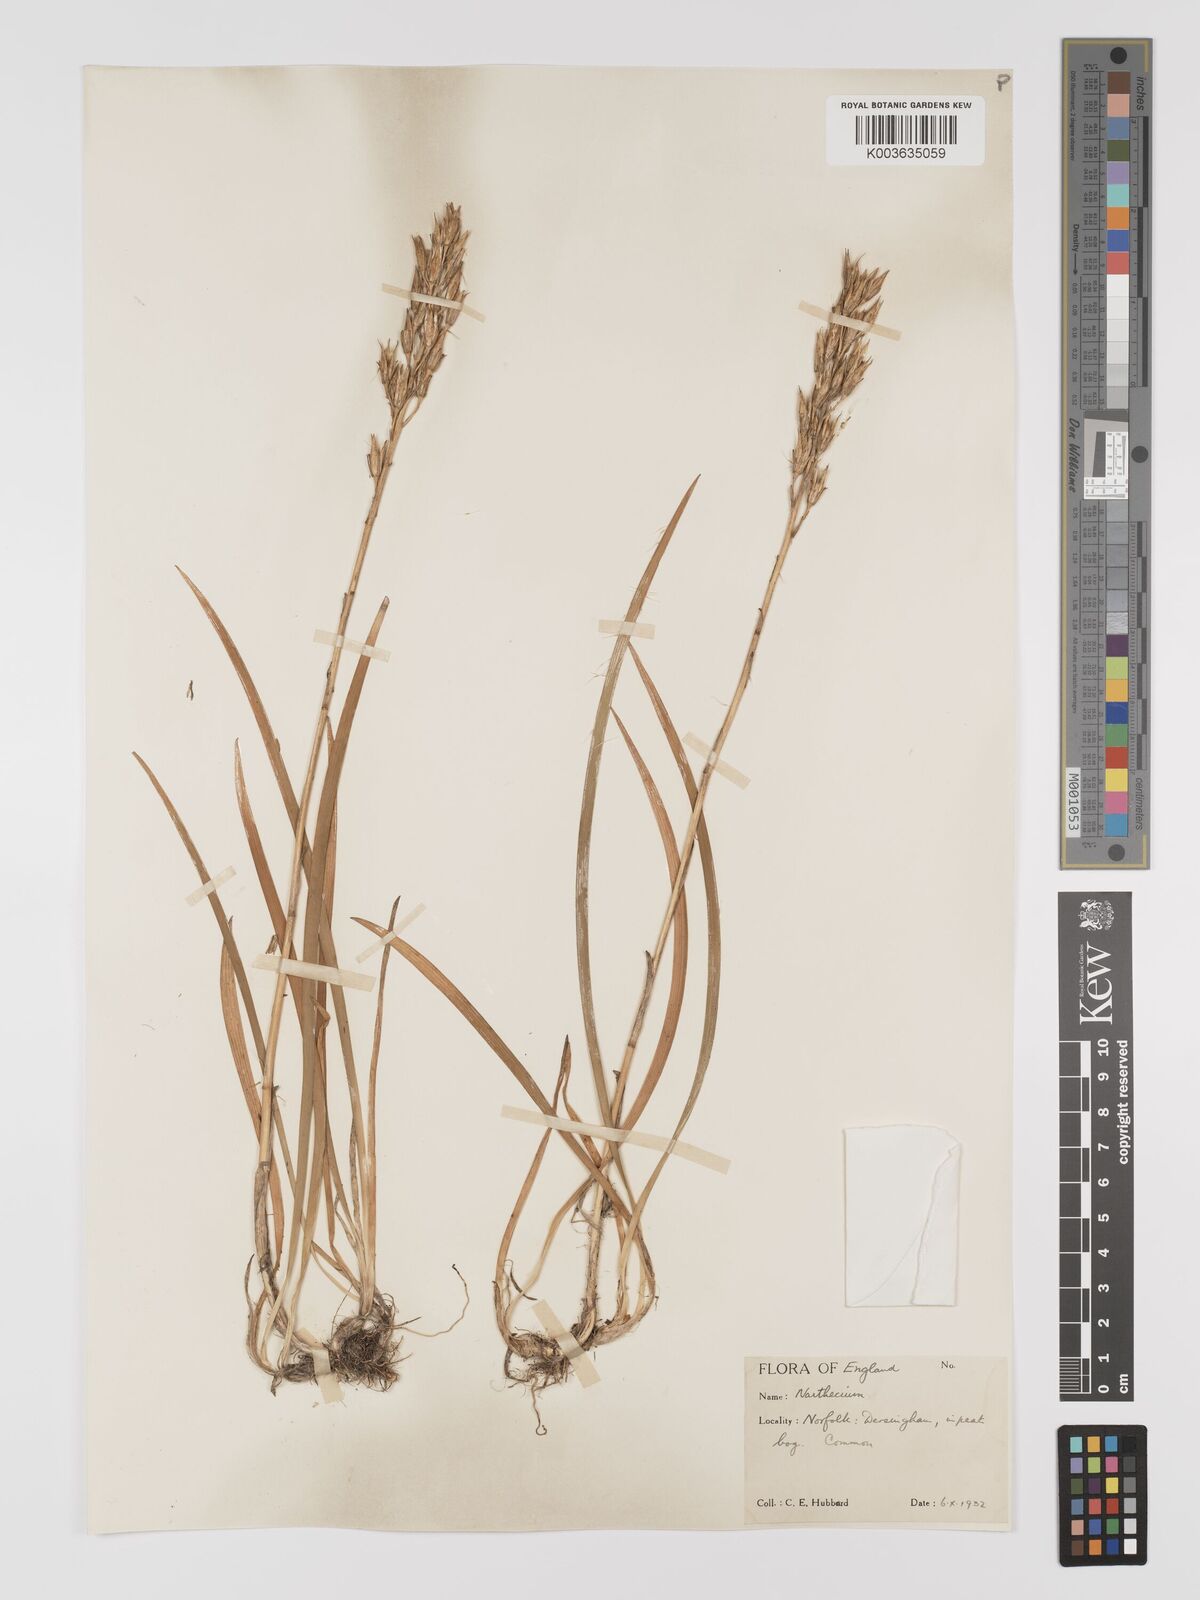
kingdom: Plantae
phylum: Tracheophyta
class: Liliopsida
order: Dioscoreales
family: Nartheciaceae
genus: Narthecium
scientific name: Narthecium
